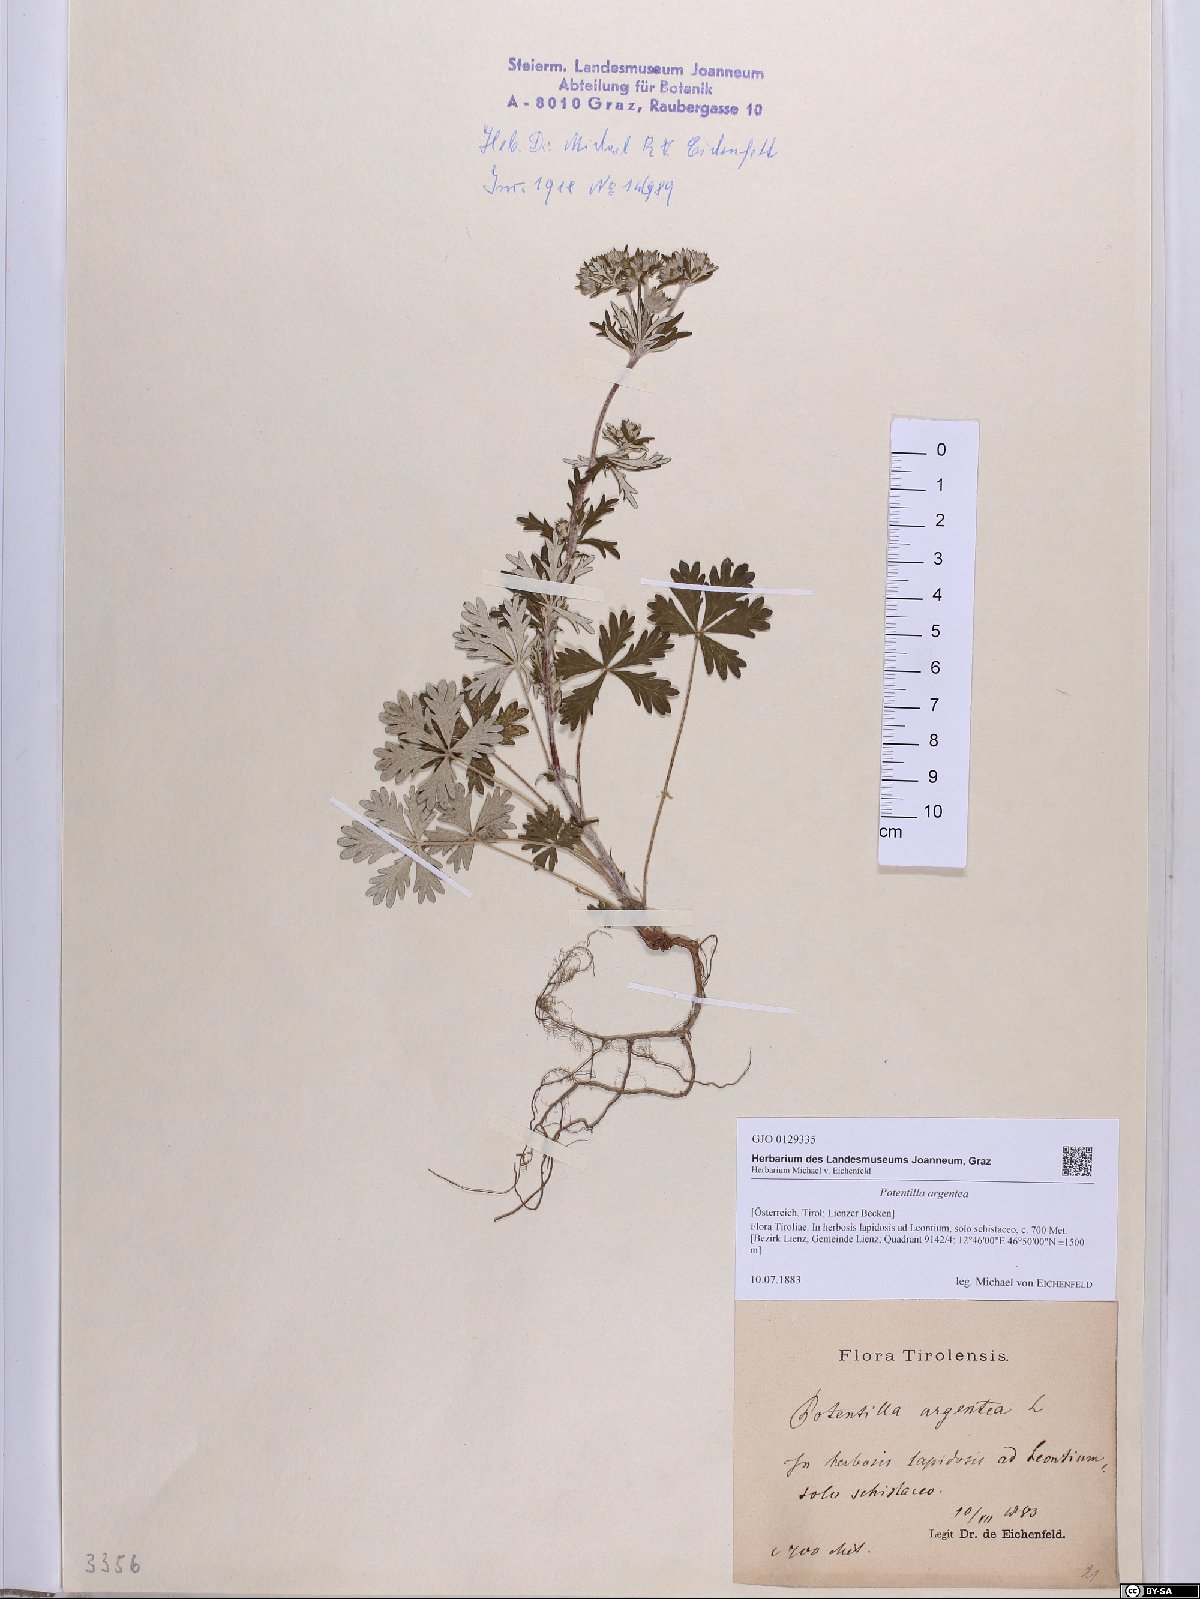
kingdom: Plantae
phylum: Tracheophyta
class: Magnoliopsida
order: Rosales
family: Rosaceae
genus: Potentilla
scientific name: Potentilla argentea
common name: Hoary cinquefoil
